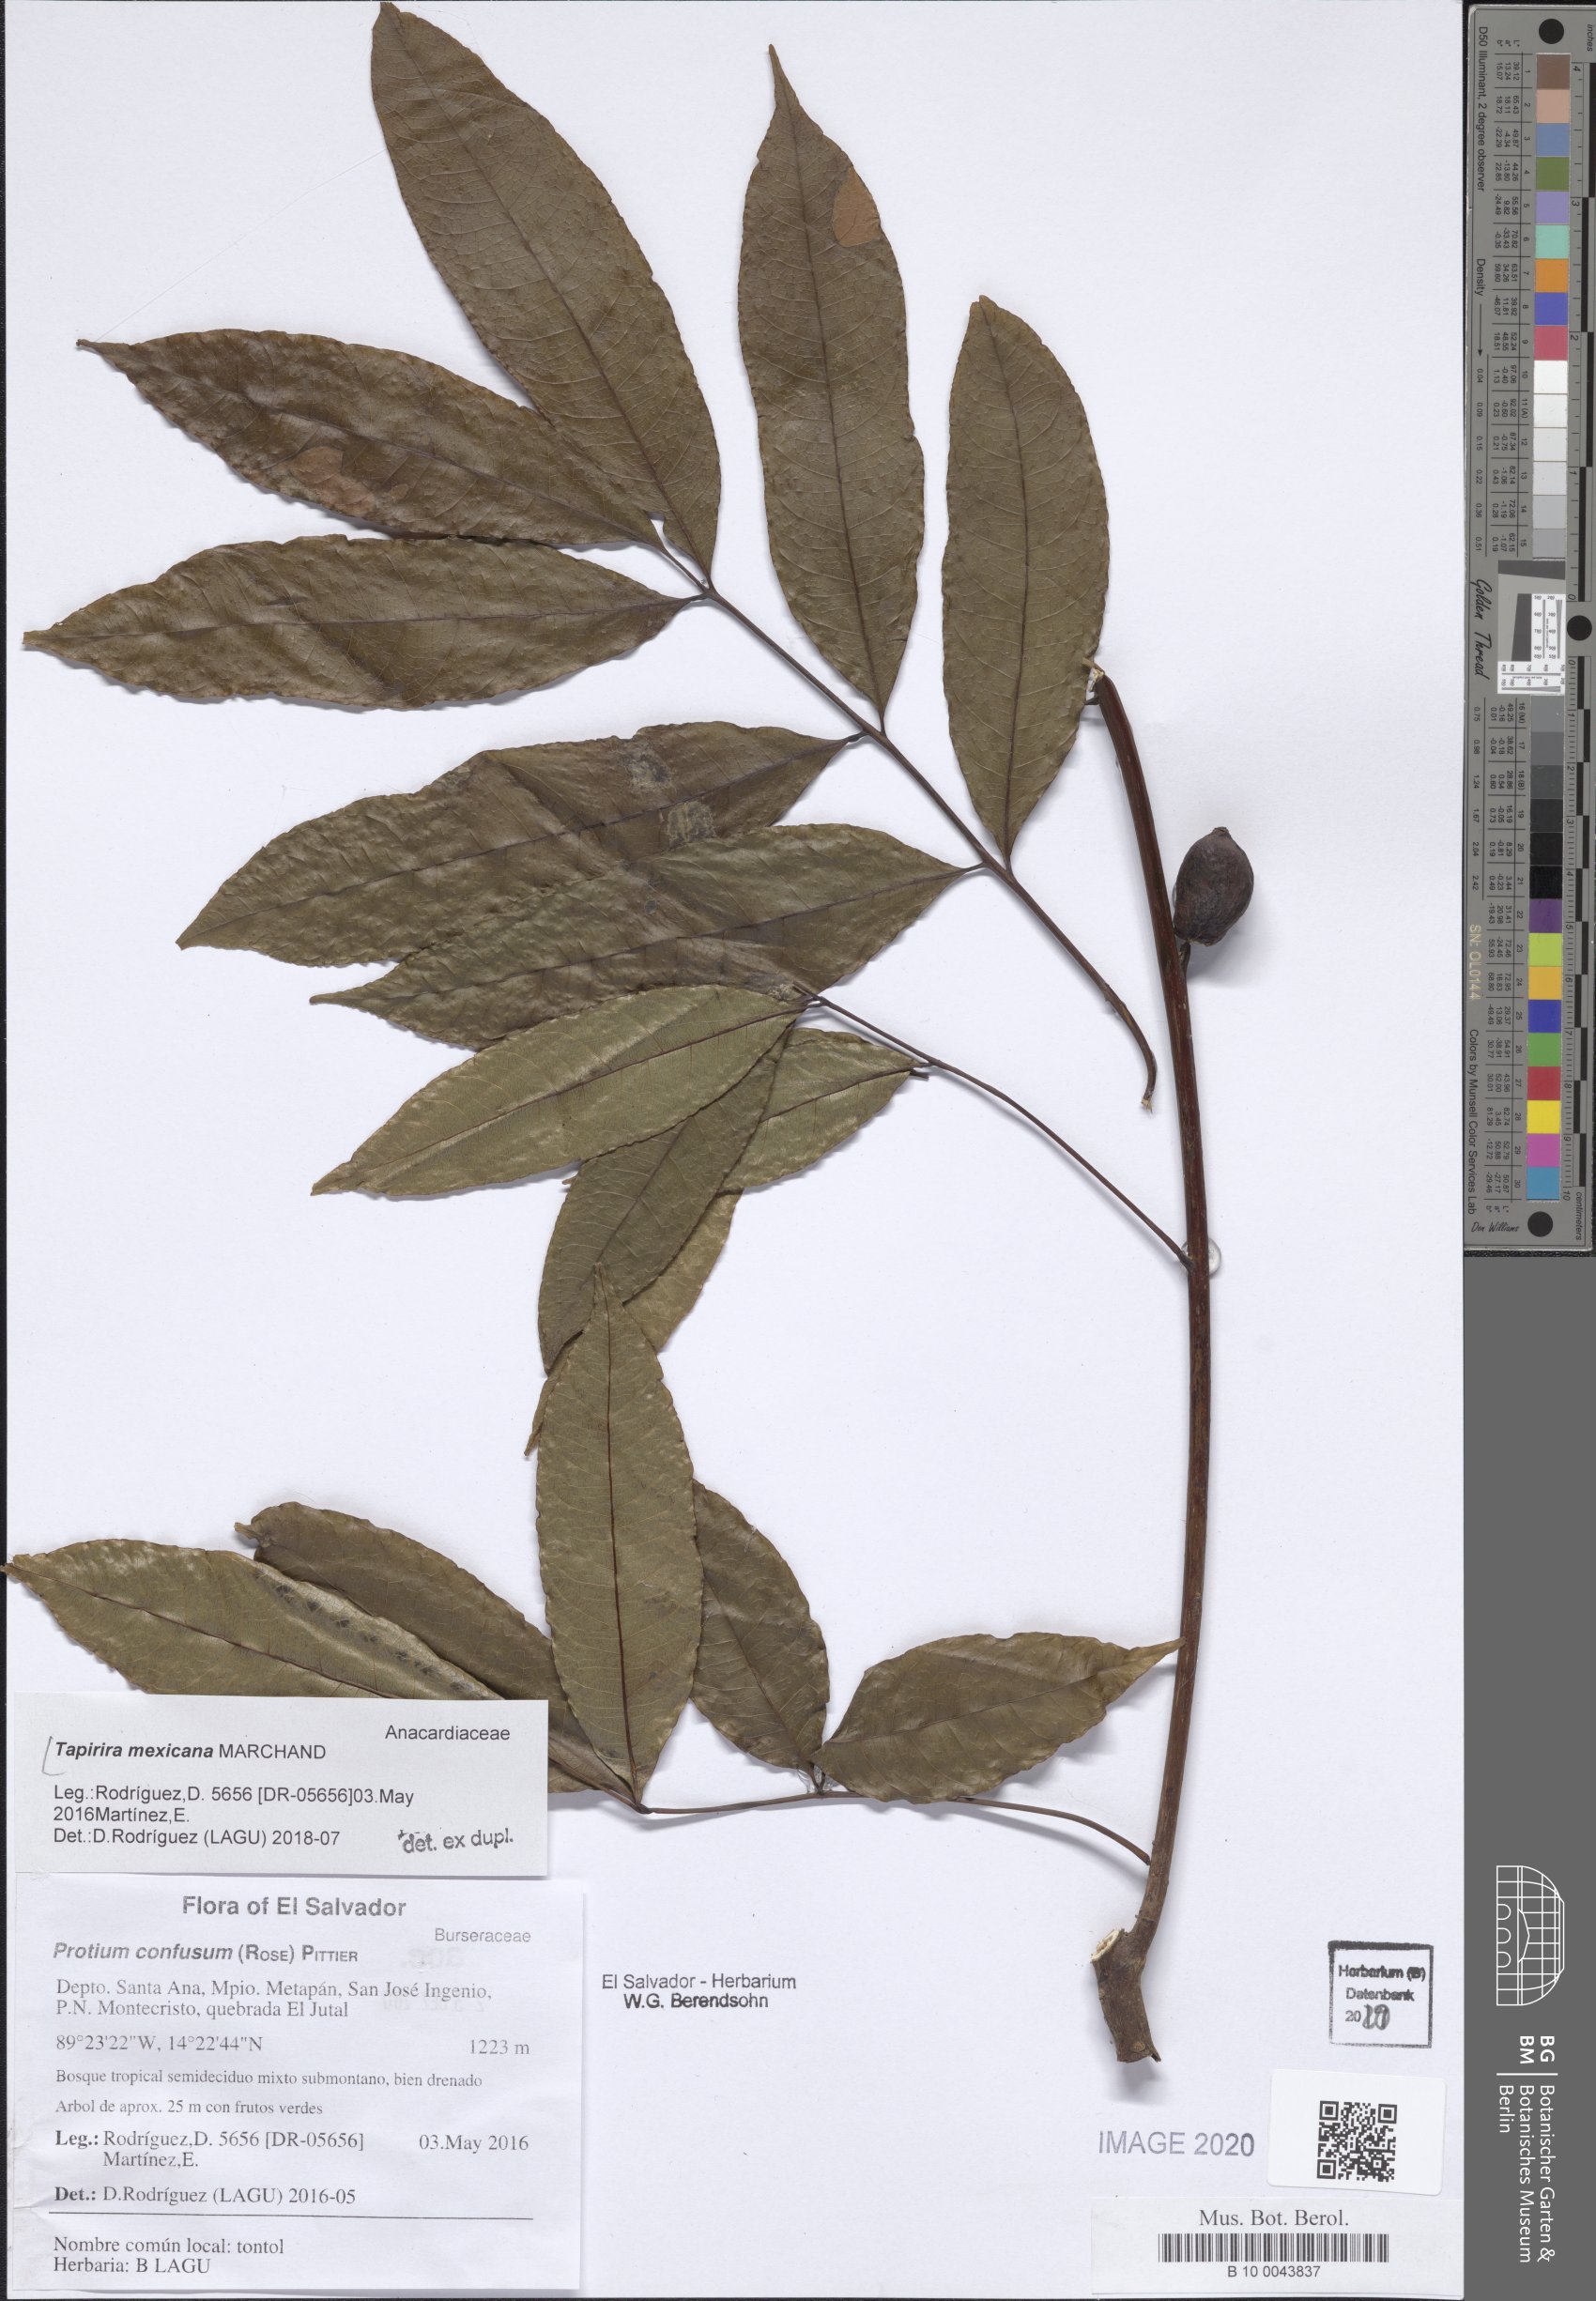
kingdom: Plantae
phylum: Tracheophyta
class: Magnoliopsida
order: Sapindales
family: Anacardiaceae
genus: Tapirira
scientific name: Tapirira mexicana
